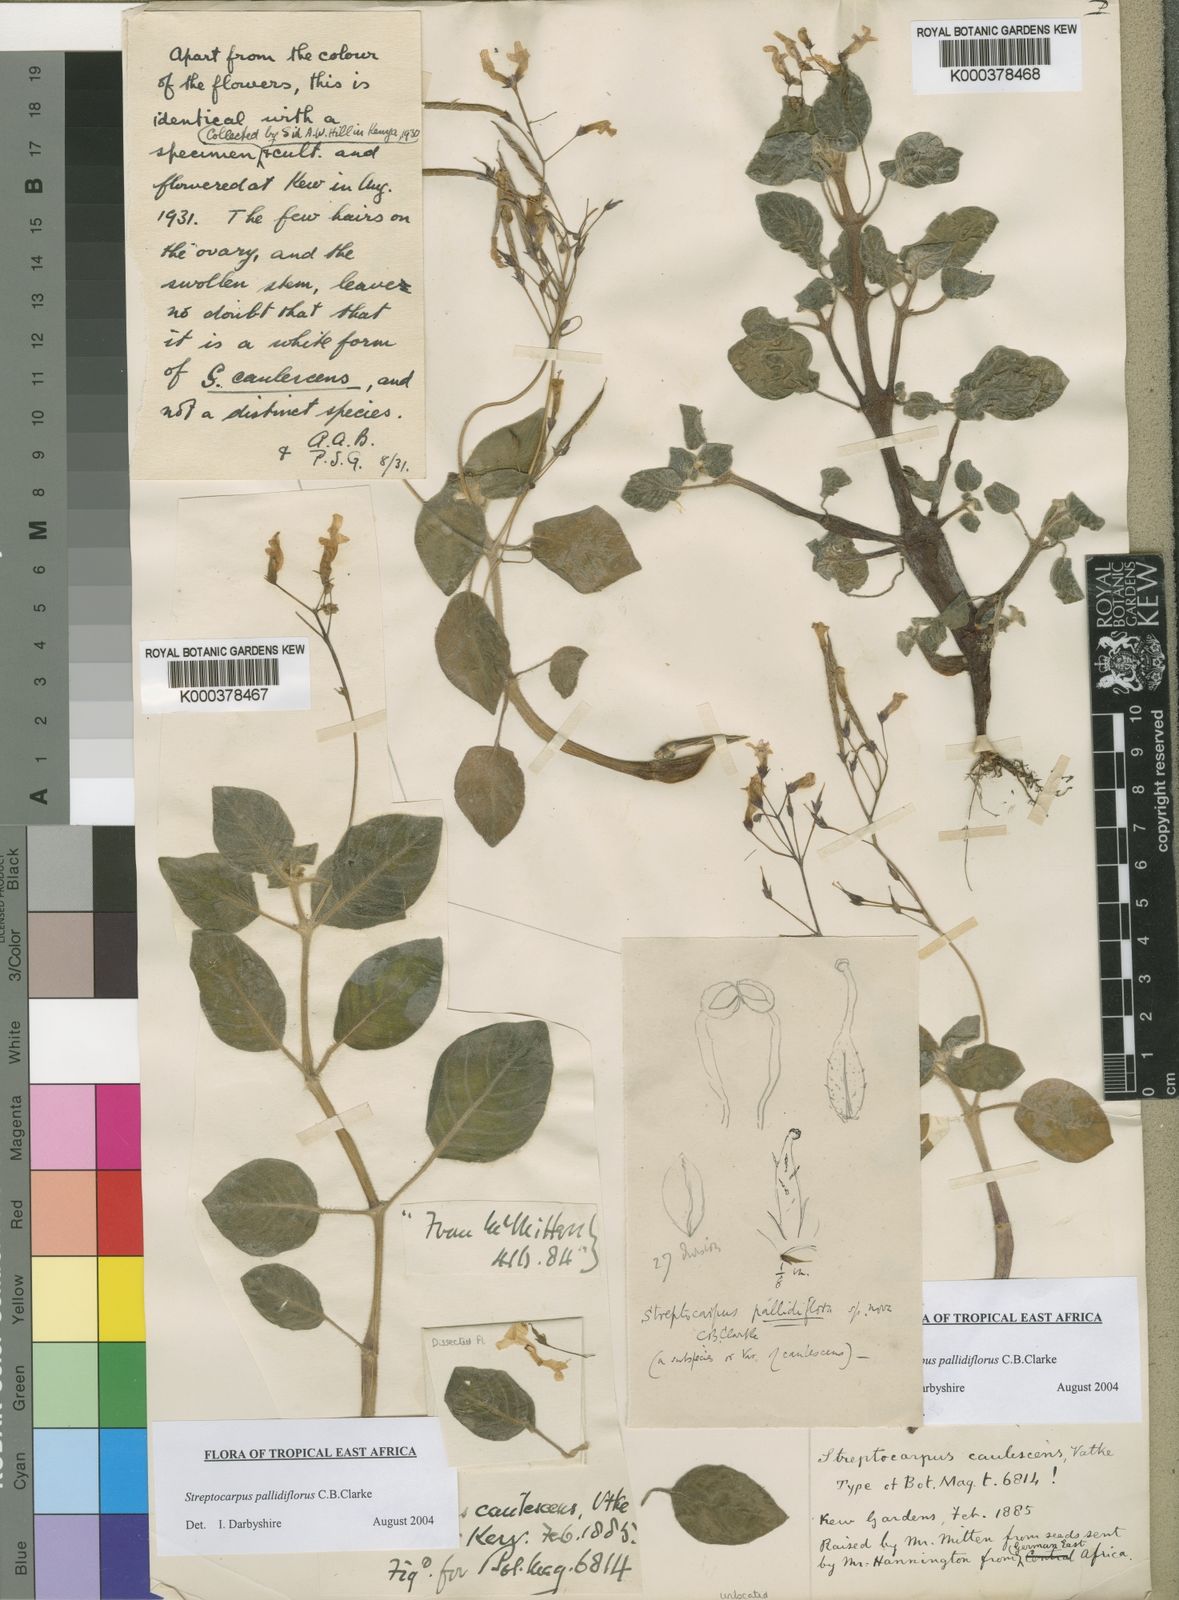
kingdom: Plantae
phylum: Tracheophyta
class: Magnoliopsida
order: Lamiales
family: Gesneriaceae
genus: Streptocarpus
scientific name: Streptocarpus pallidiflorus
